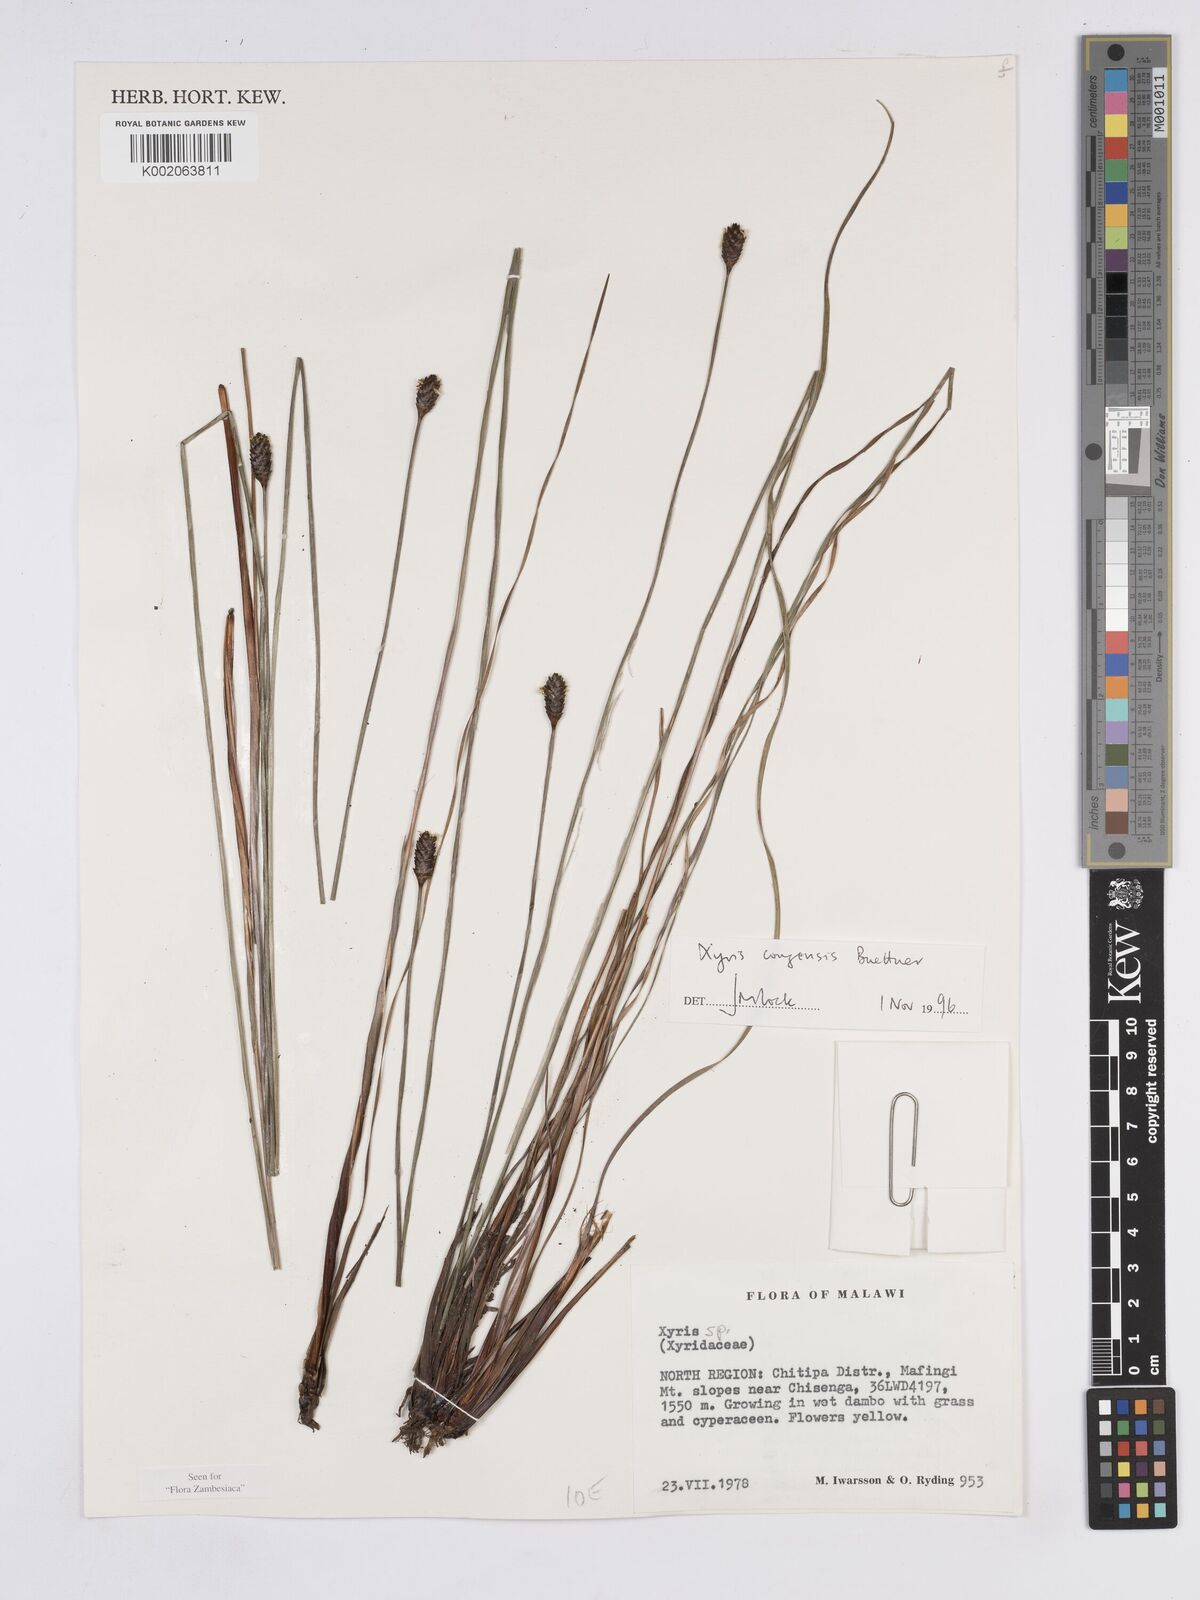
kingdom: Plantae
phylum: Tracheophyta
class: Liliopsida
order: Poales
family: Xyridaceae
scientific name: Xyridaceae
